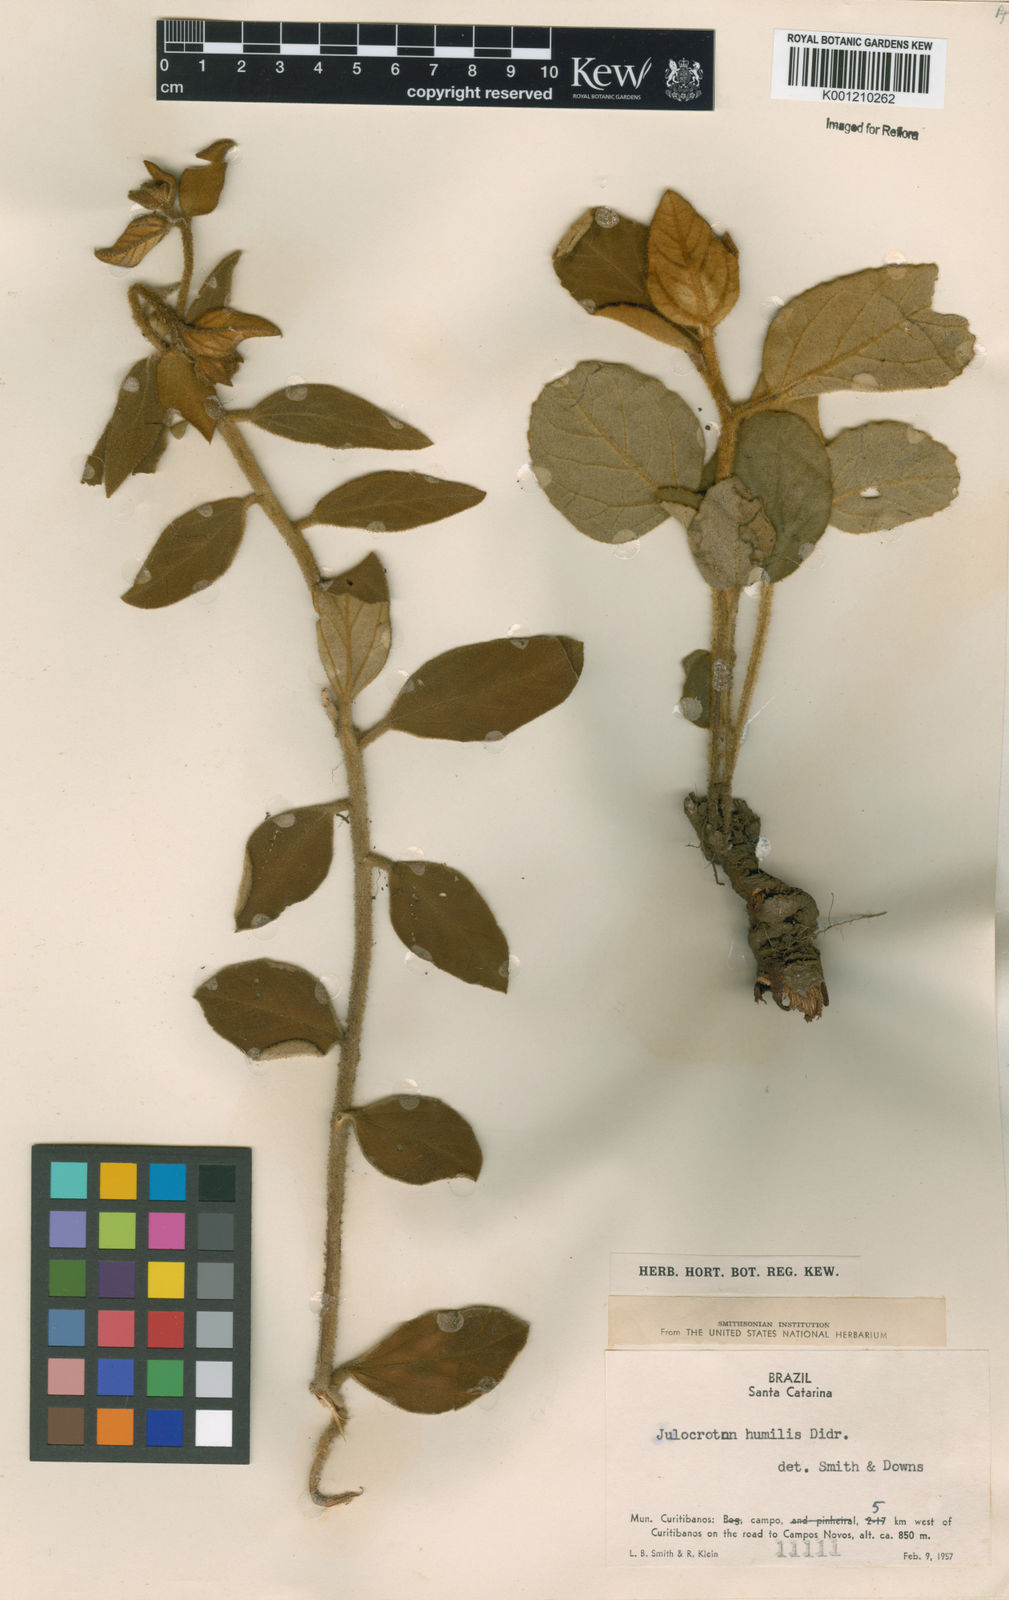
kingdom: Plantae
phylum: Tracheophyta
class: Magnoliopsida
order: Malpighiales
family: Euphorbiaceae
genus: Croton
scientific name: Croton solanaceus
